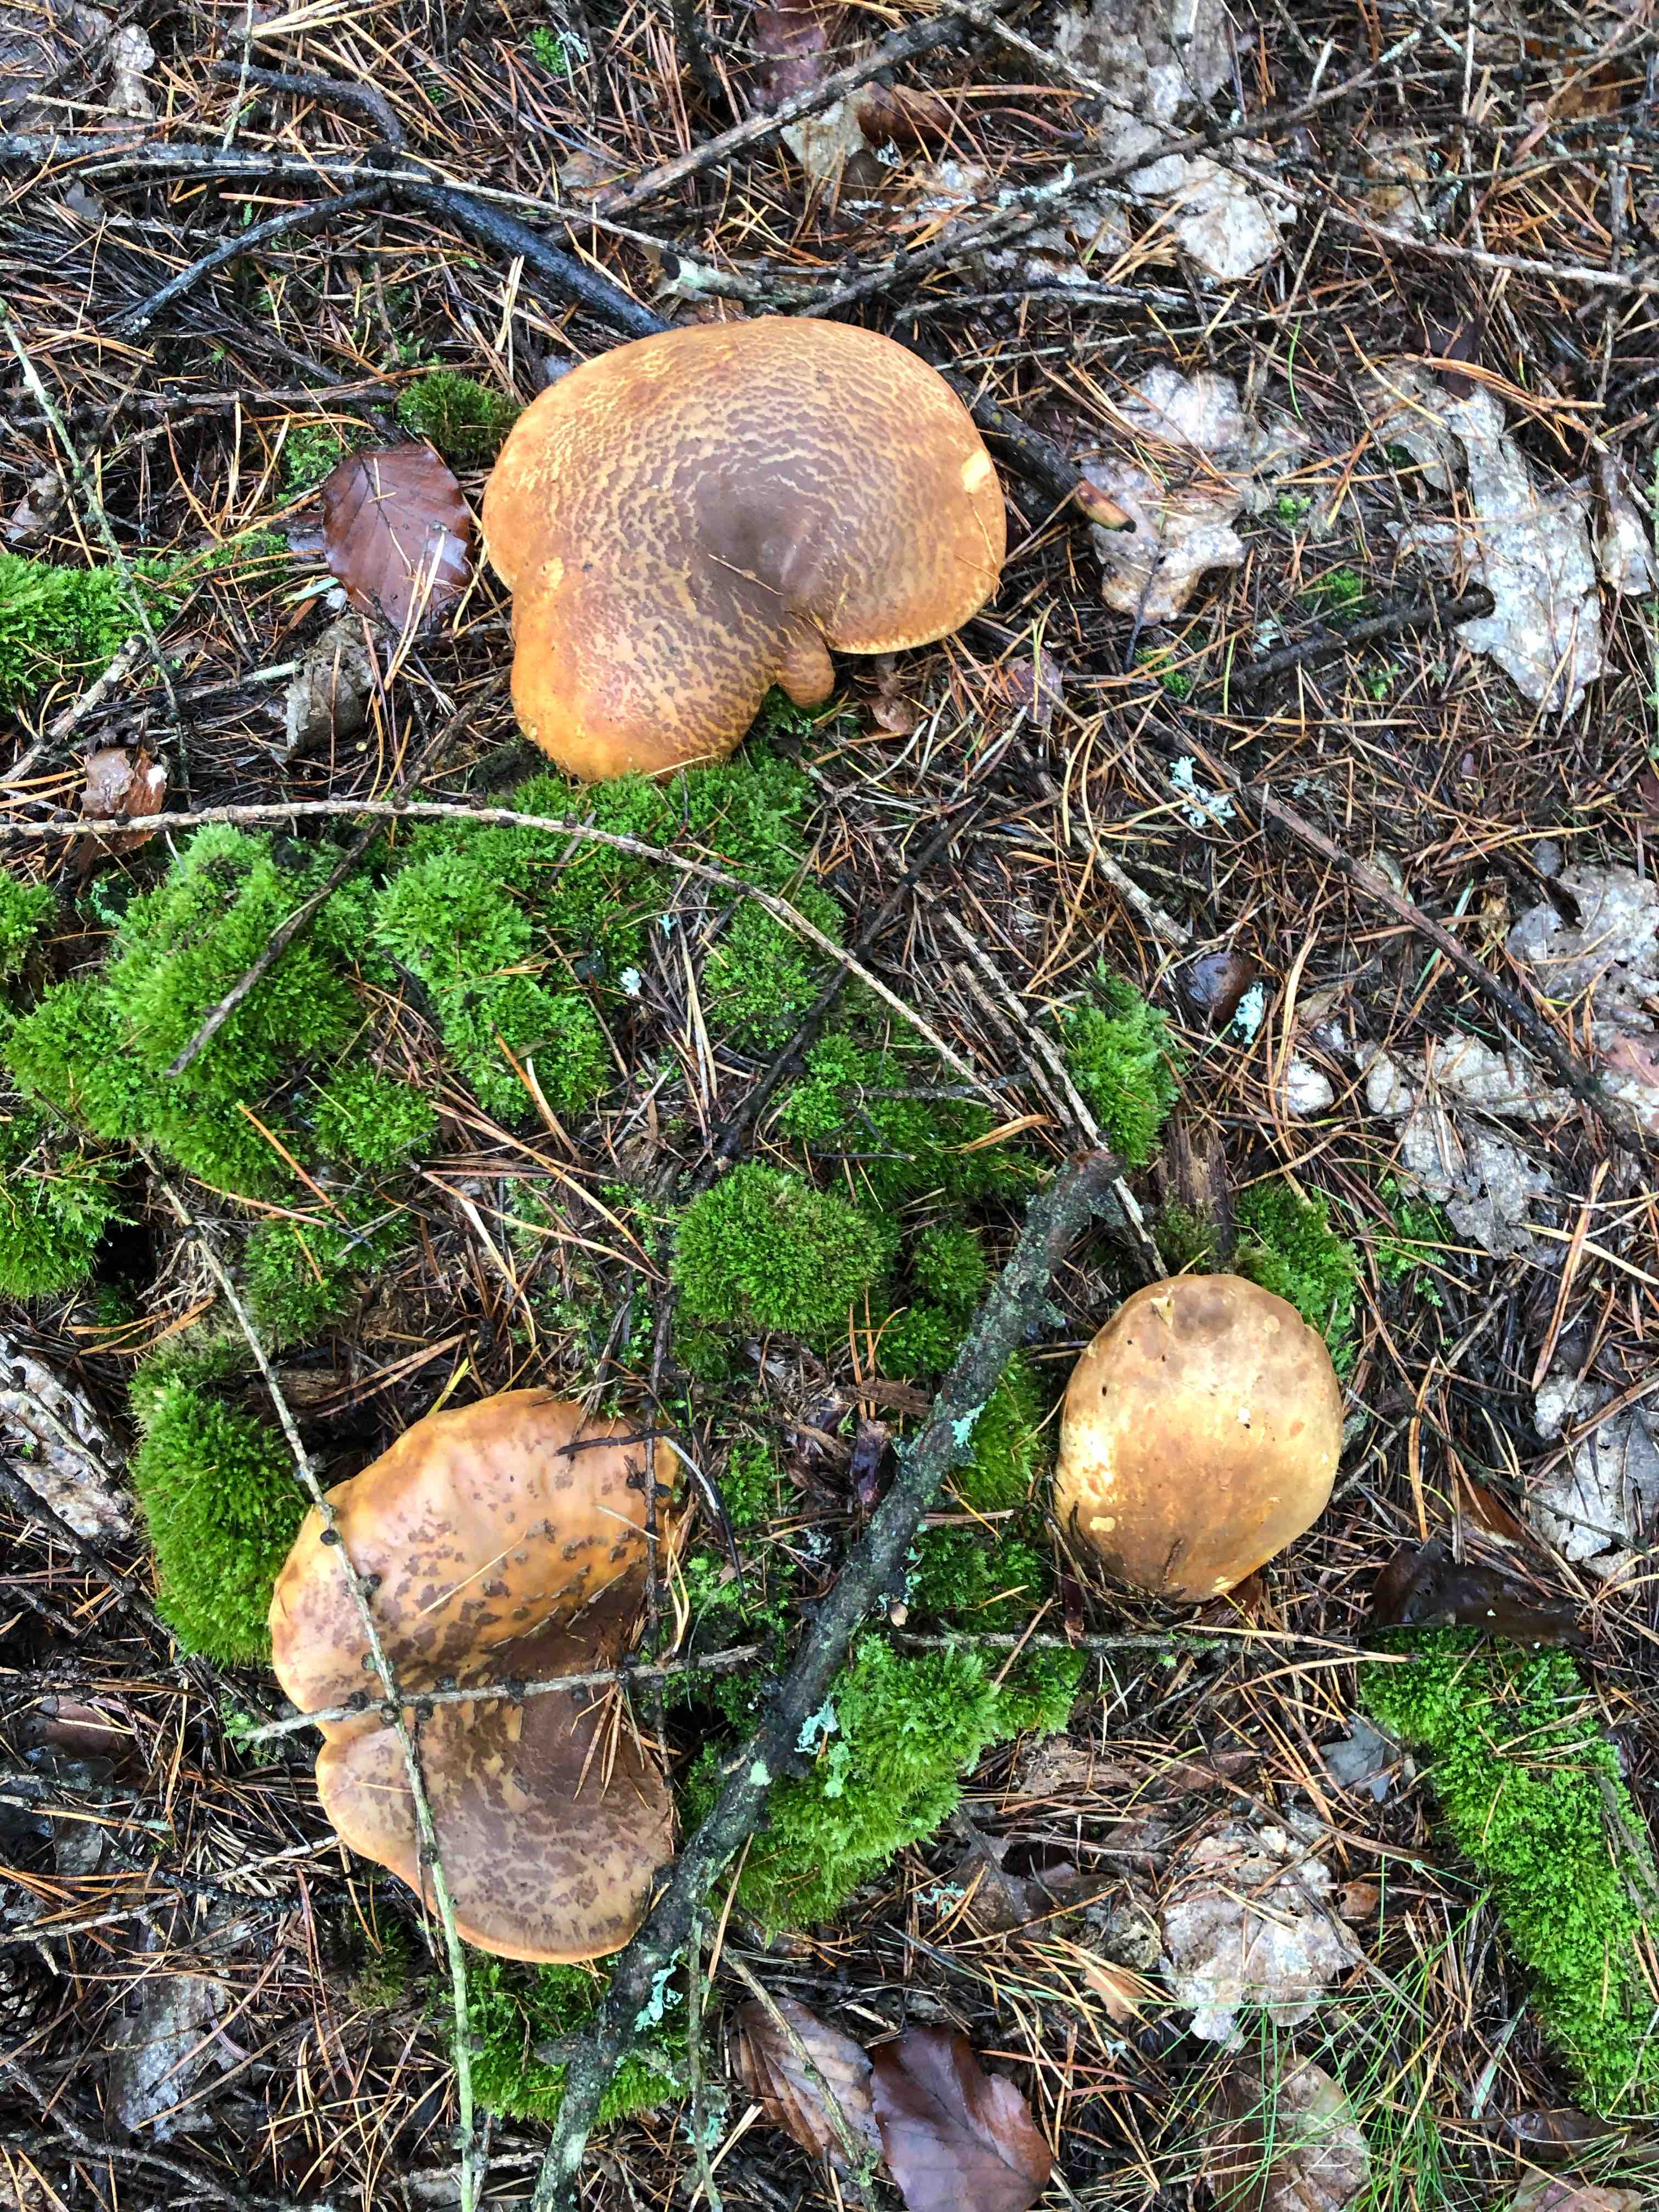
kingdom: Fungi
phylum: Basidiomycota
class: Agaricomycetes
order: Boletales
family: Tapinellaceae
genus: Tapinella
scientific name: Tapinella atrotomentosa
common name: sortfiltet viftesvamp
